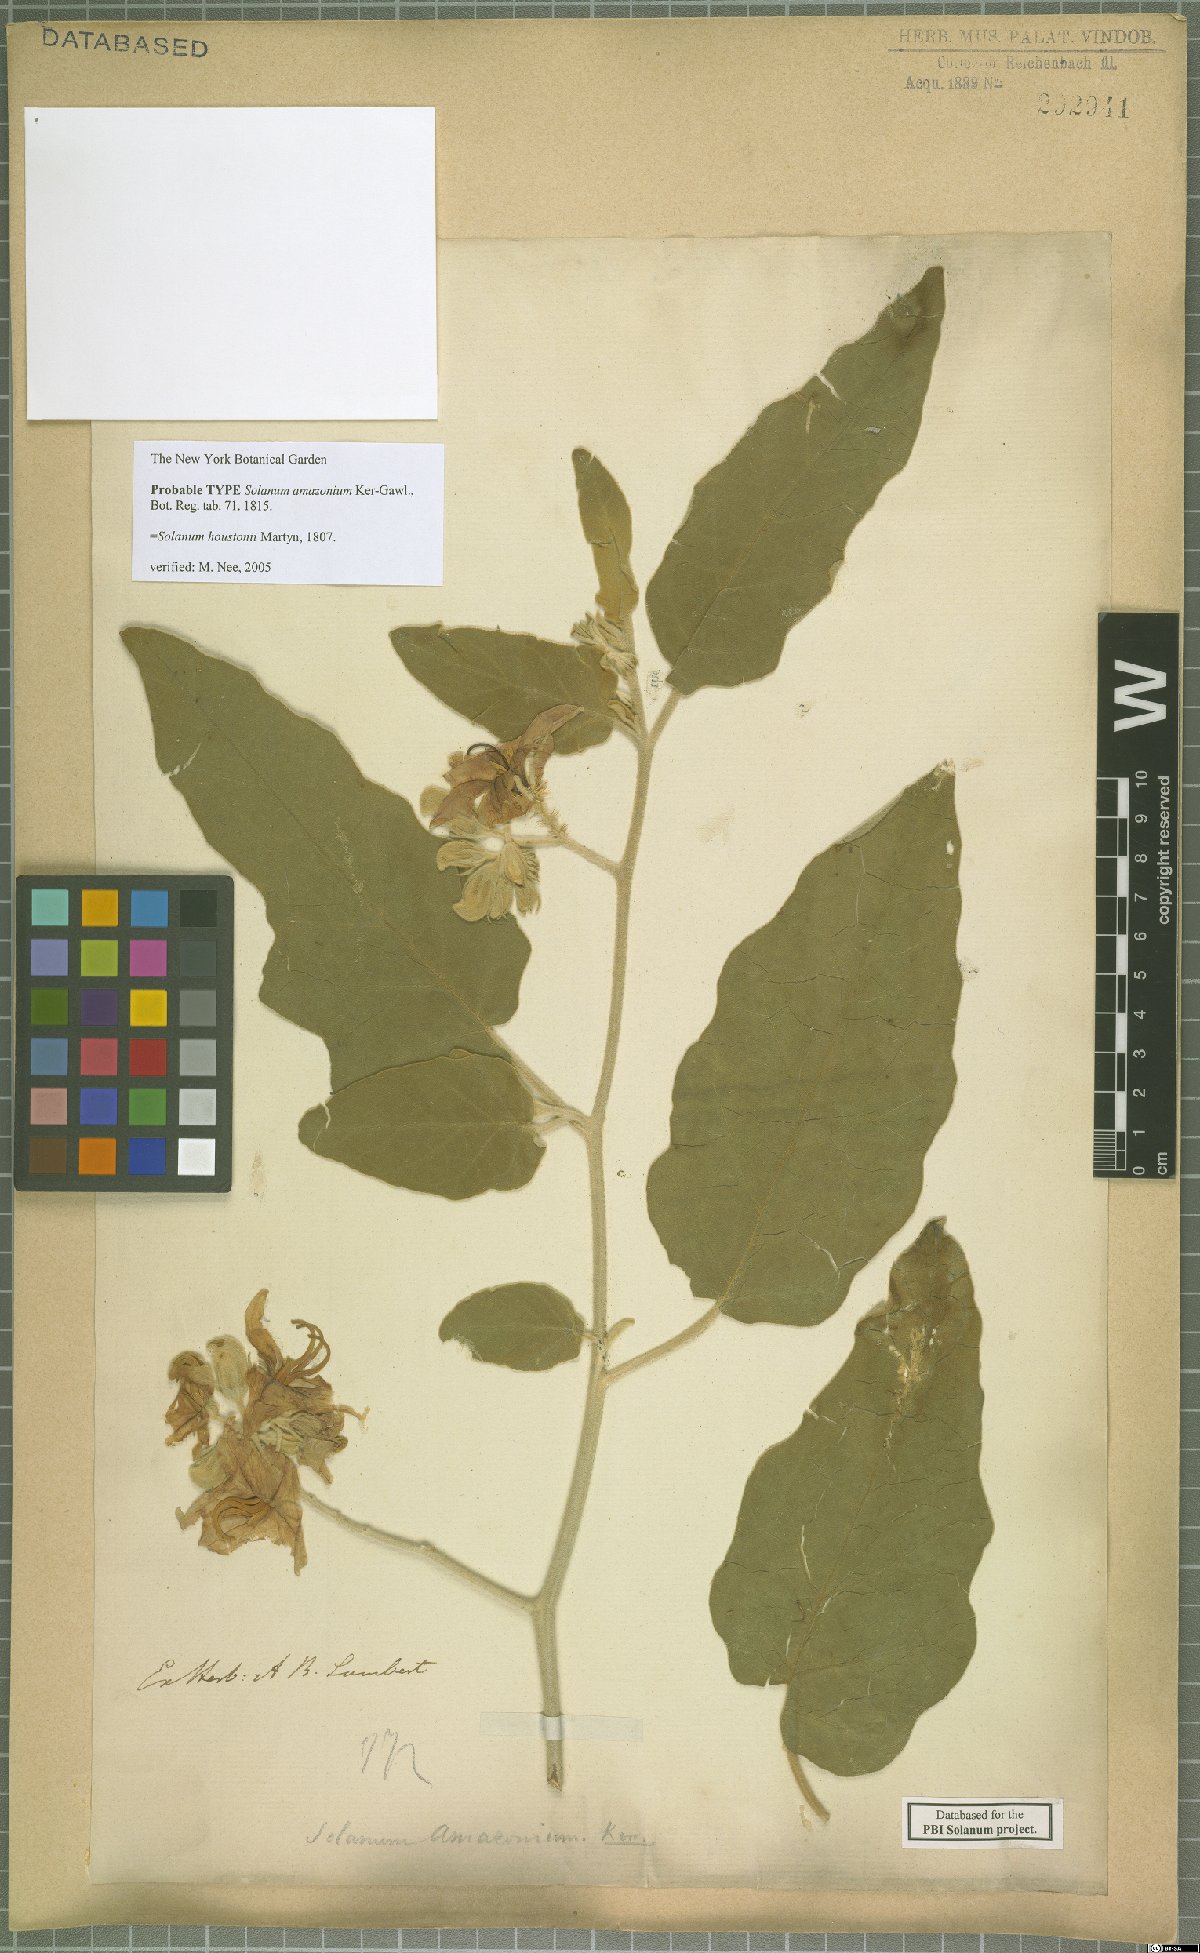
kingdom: Plantae
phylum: Tracheophyta
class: Magnoliopsida
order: Solanales
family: Solanaceae
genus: Solanum
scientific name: Solanum houstonii
